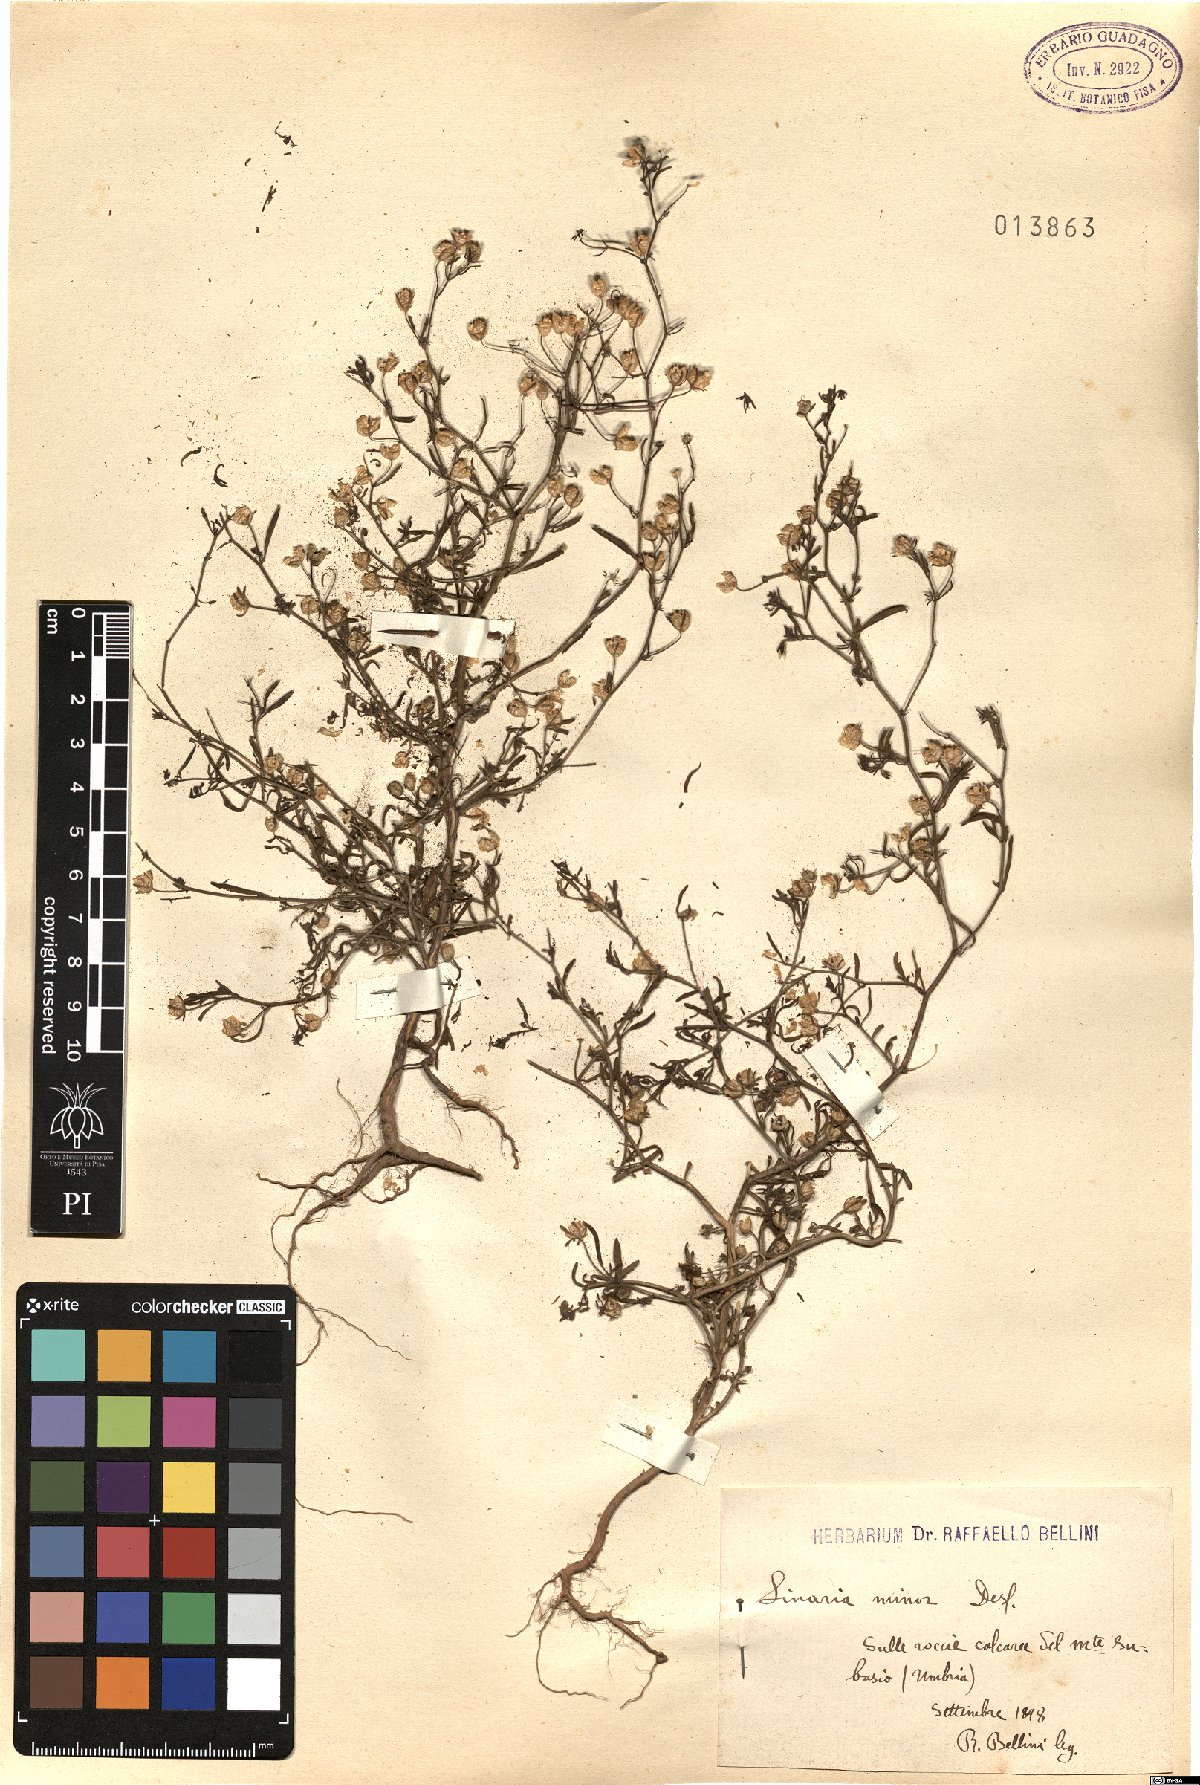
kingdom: Plantae
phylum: Tracheophyta
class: Magnoliopsida
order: Lamiales
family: Plantaginaceae
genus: Chaenorhinum
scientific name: Chaenorhinum minus
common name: Dwarf snapdragon
